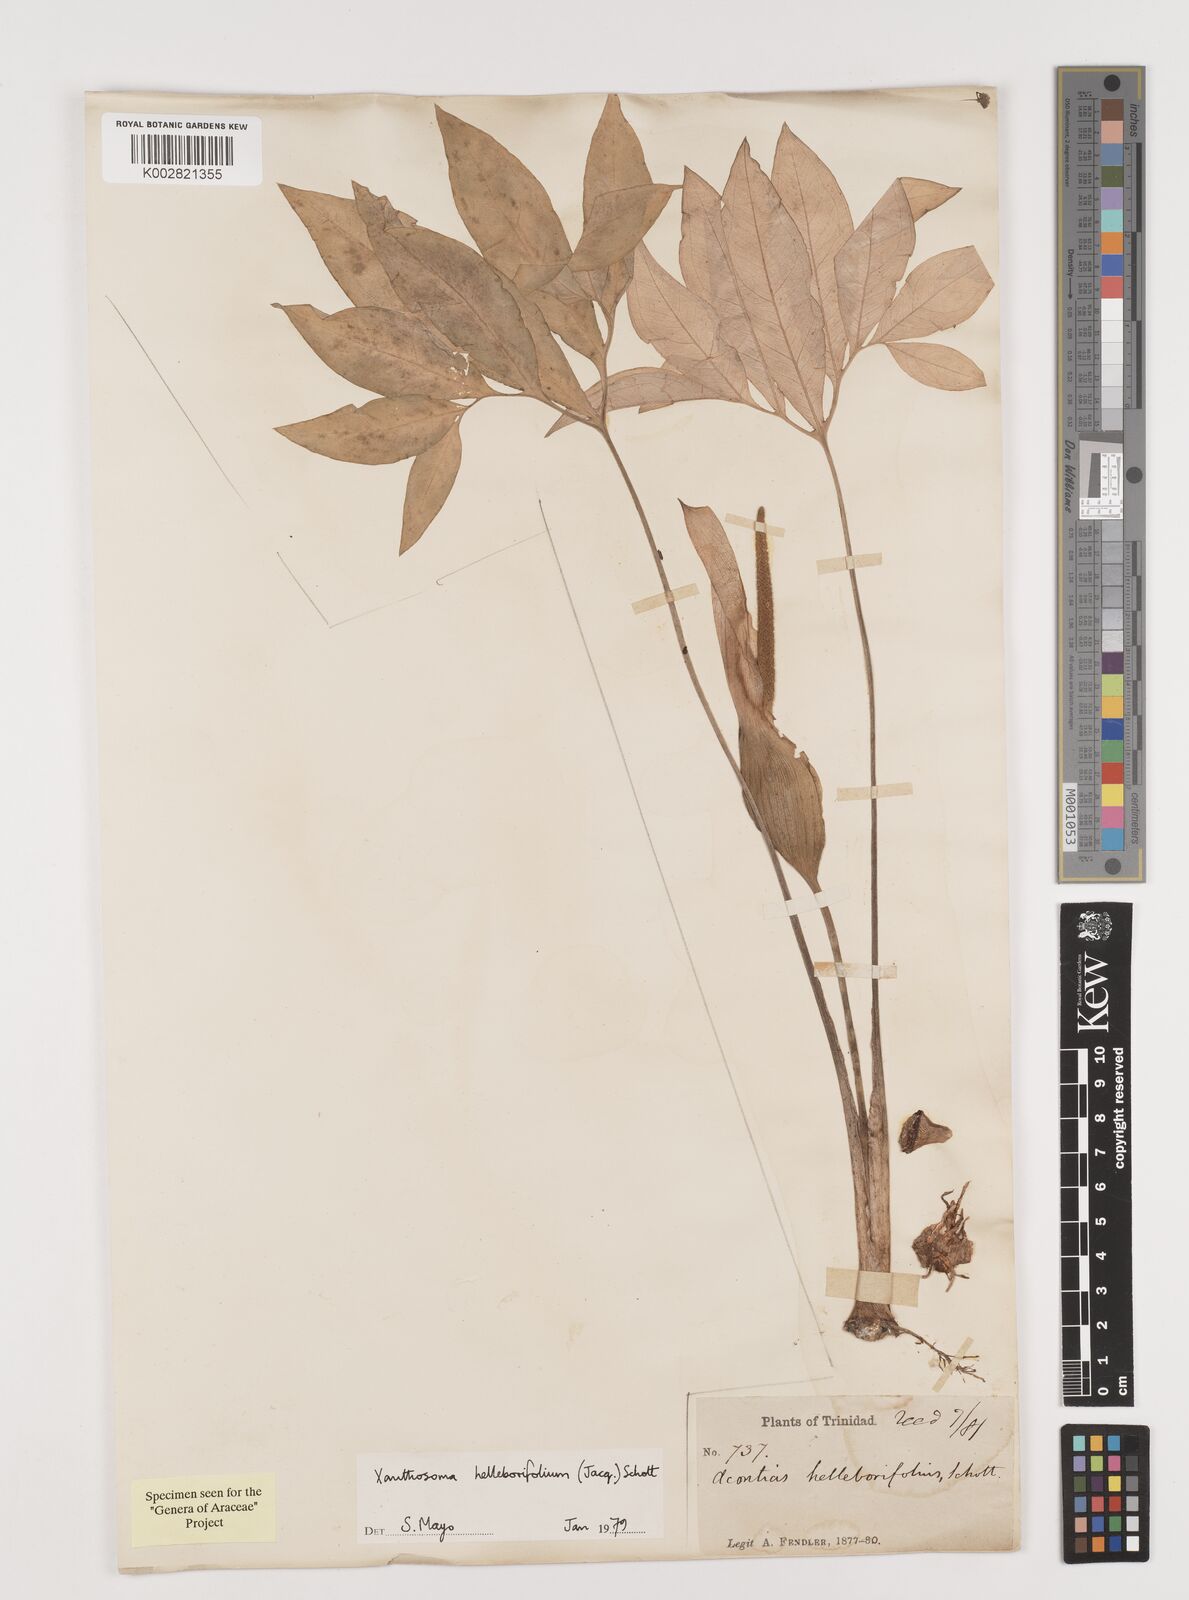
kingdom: Plantae
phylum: Tracheophyta
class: Liliopsida
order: Alismatales
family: Araceae
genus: Xanthosoma
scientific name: Xanthosoma helleborifolium
